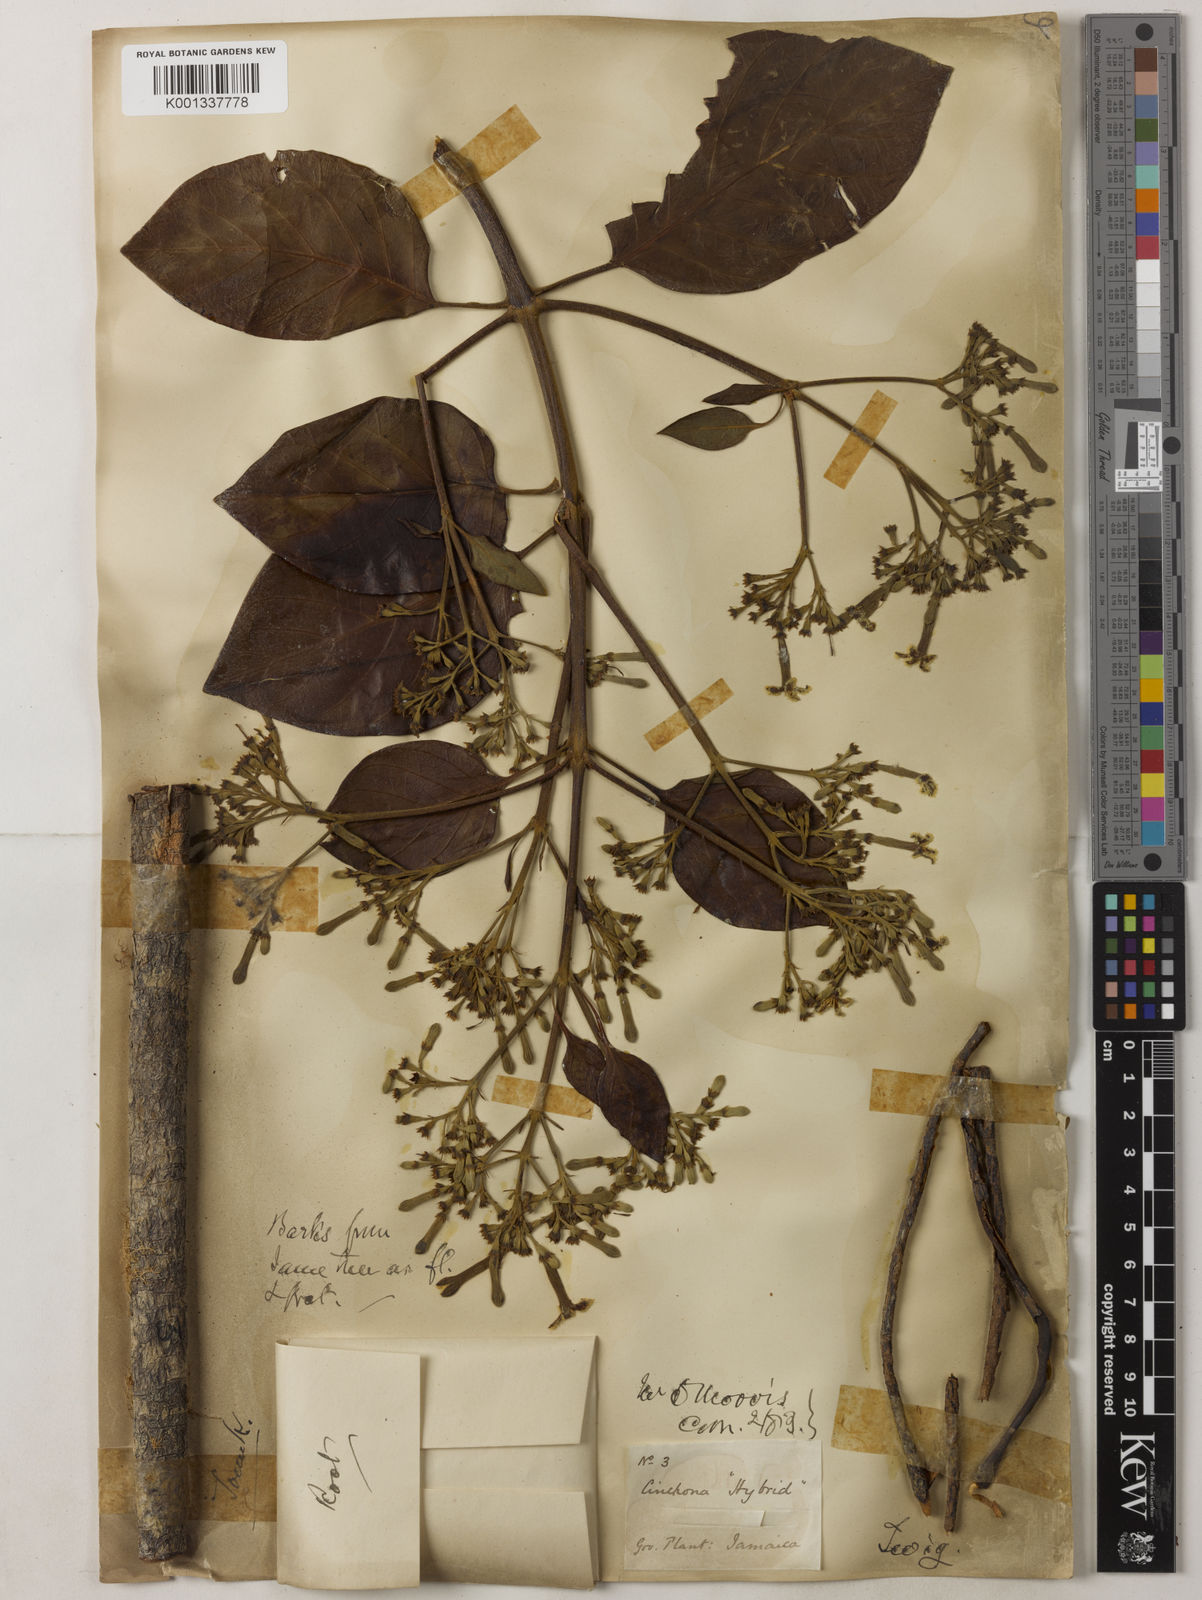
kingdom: Plantae
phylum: Tracheophyta
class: Magnoliopsida
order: Gentianales
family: Rubiaceae
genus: Cinchona
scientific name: Cinchona
